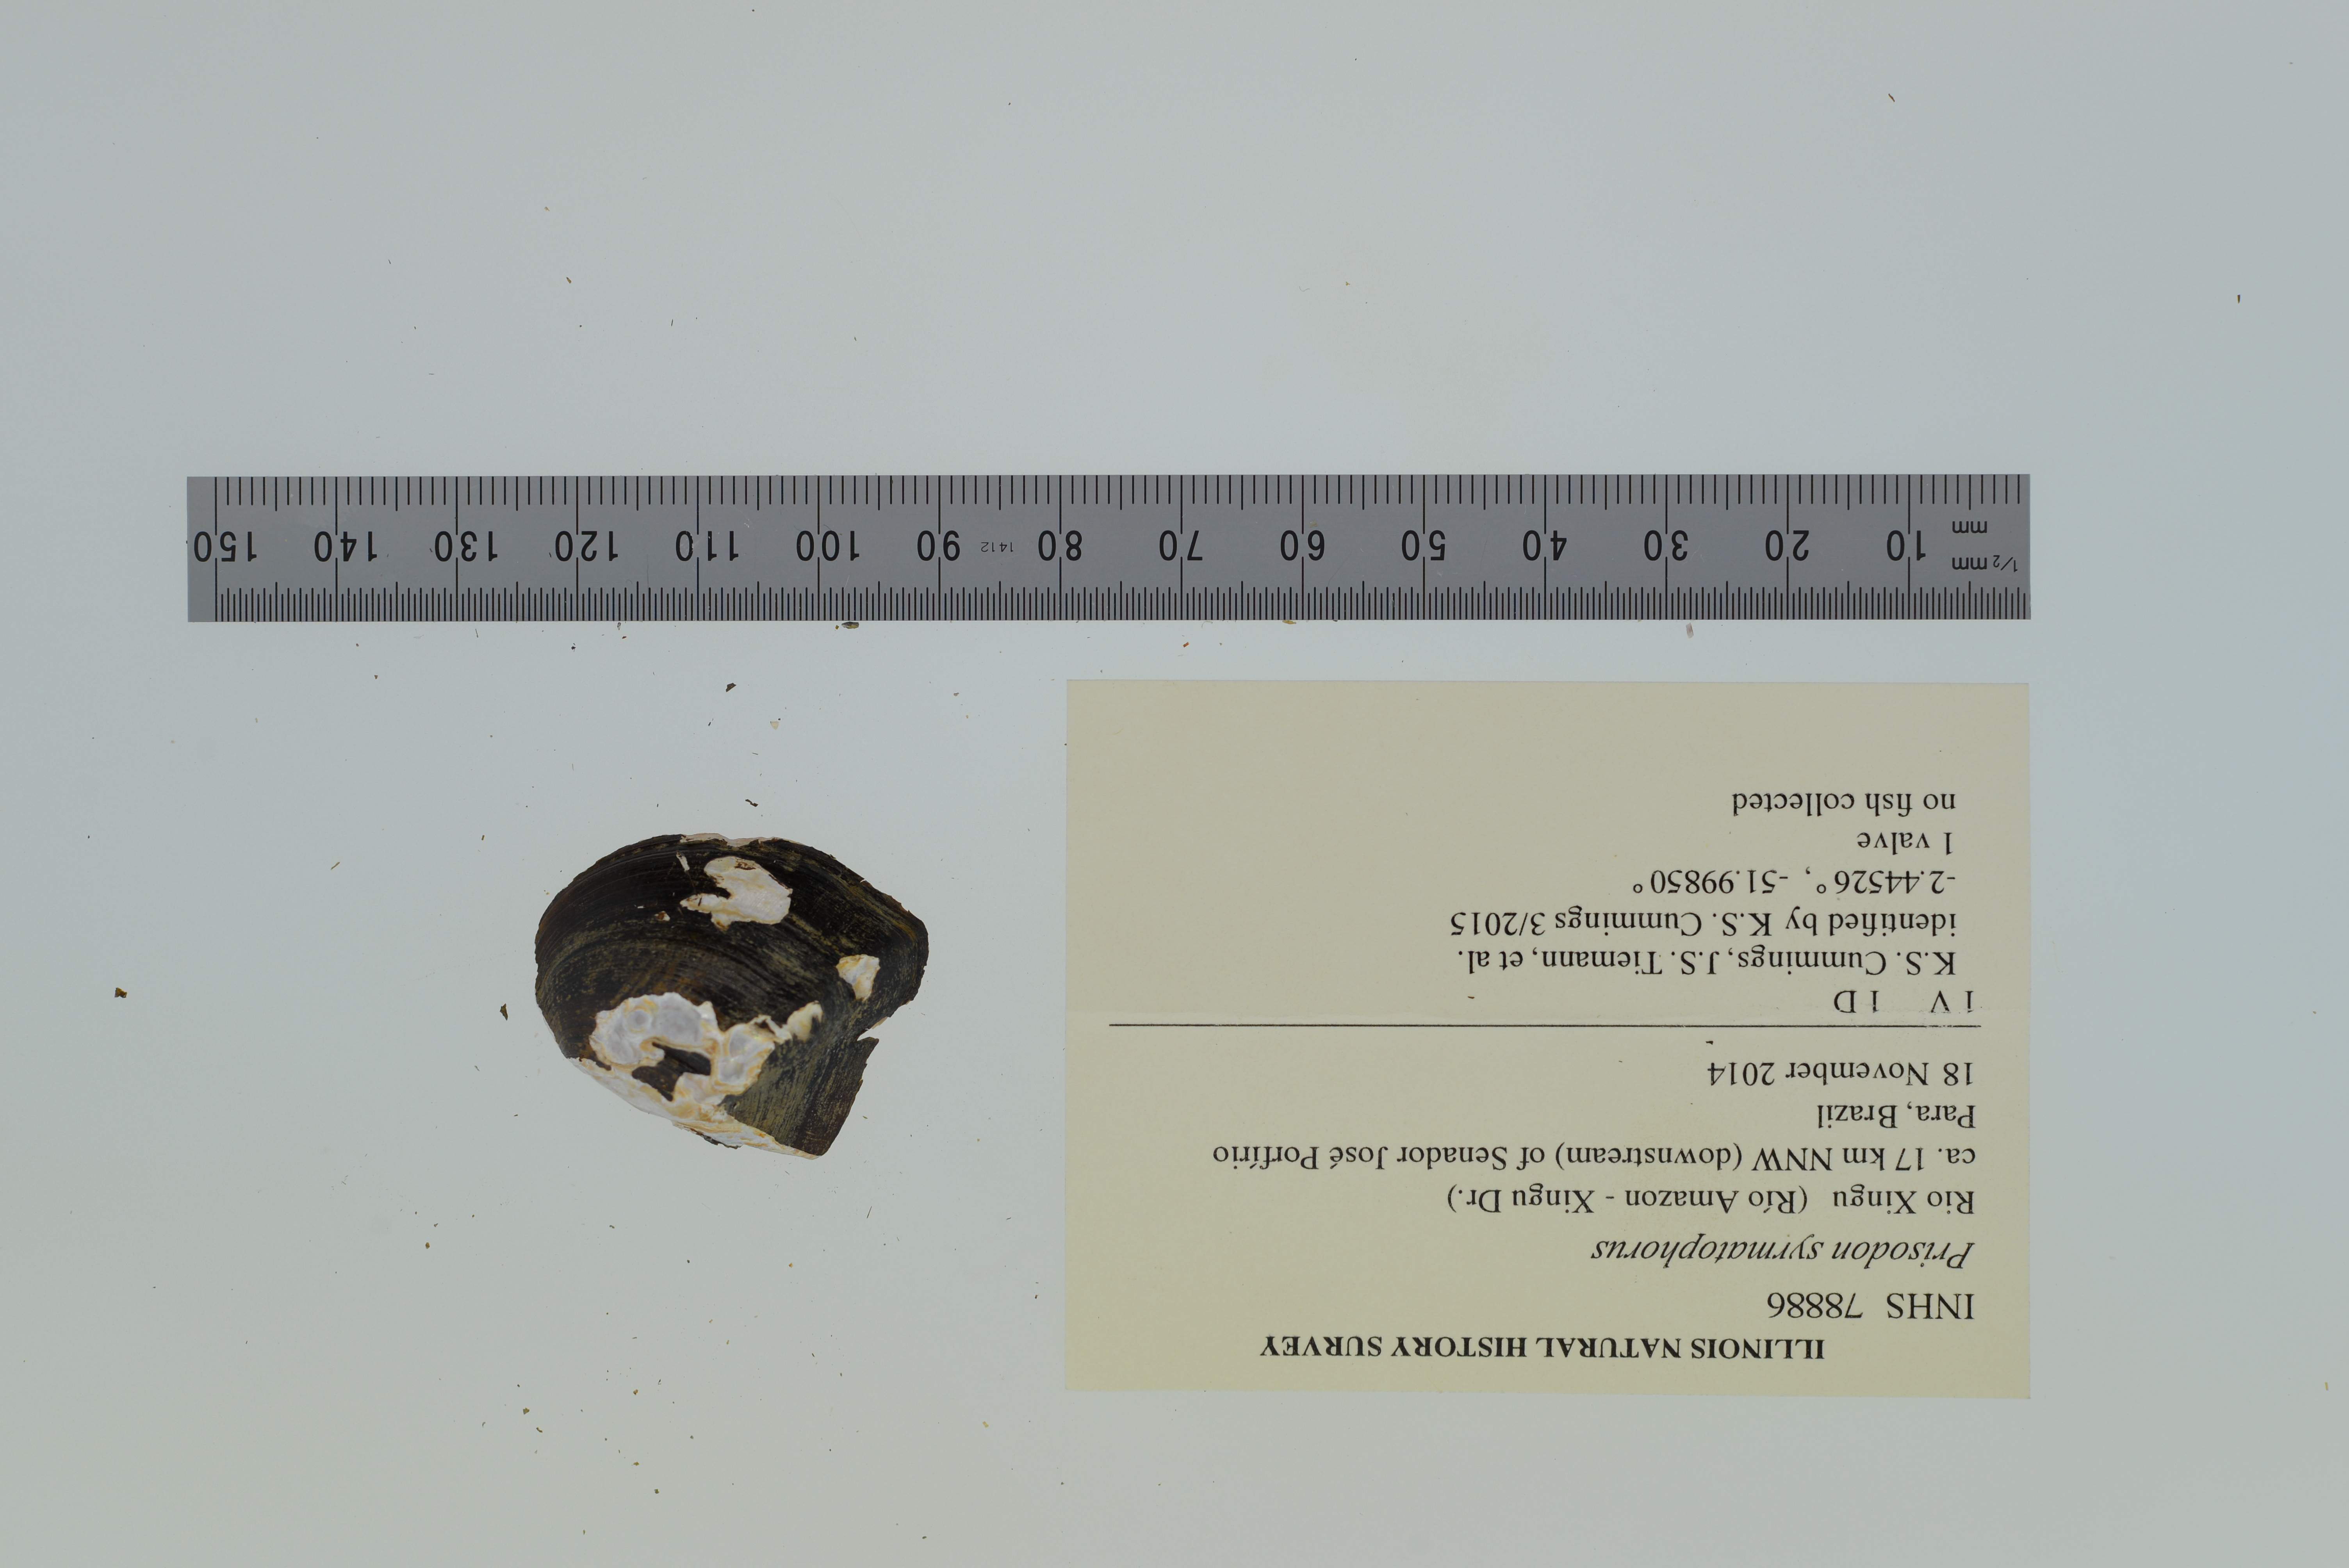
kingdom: Animalia
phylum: Mollusca
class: Bivalvia
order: Unionida
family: Hyriidae
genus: Prisodon
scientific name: Prisodon syrmatophorus
